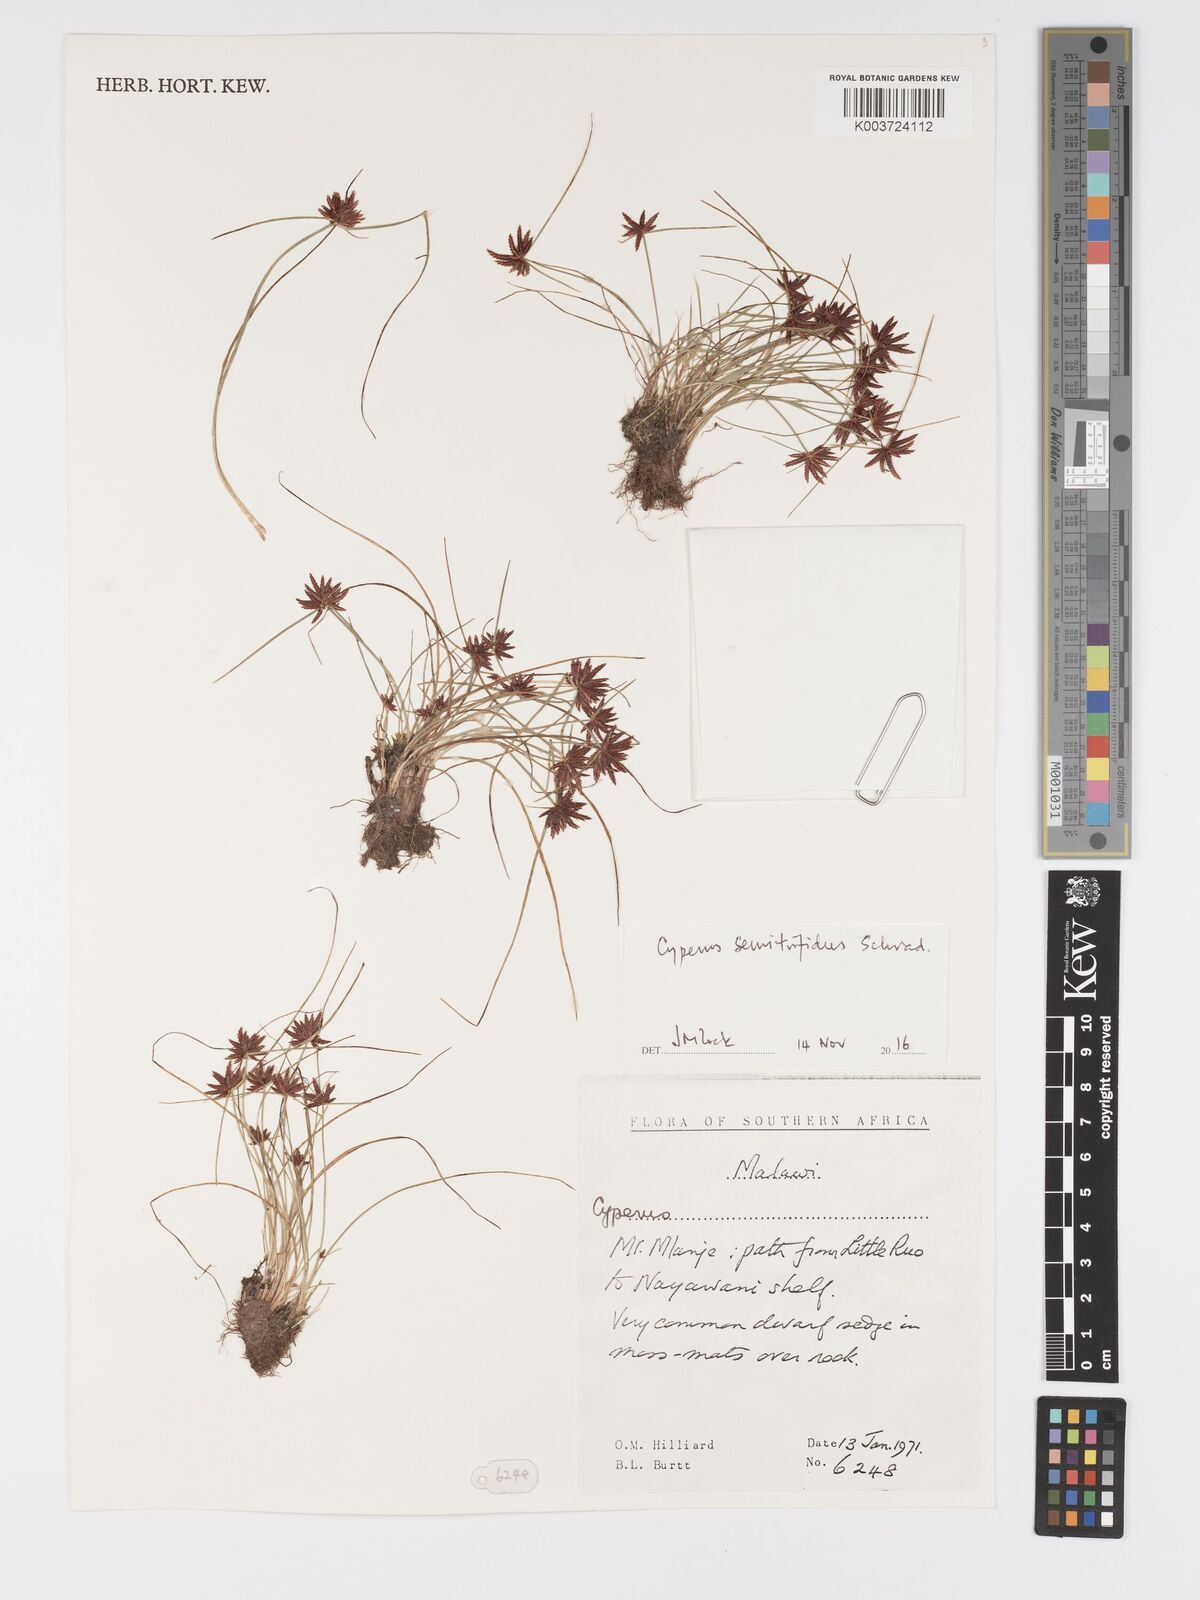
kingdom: Plantae
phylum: Tracheophyta
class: Liliopsida
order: Poales
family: Cyperaceae
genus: Cyperus
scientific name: Cyperus semitrifidus
